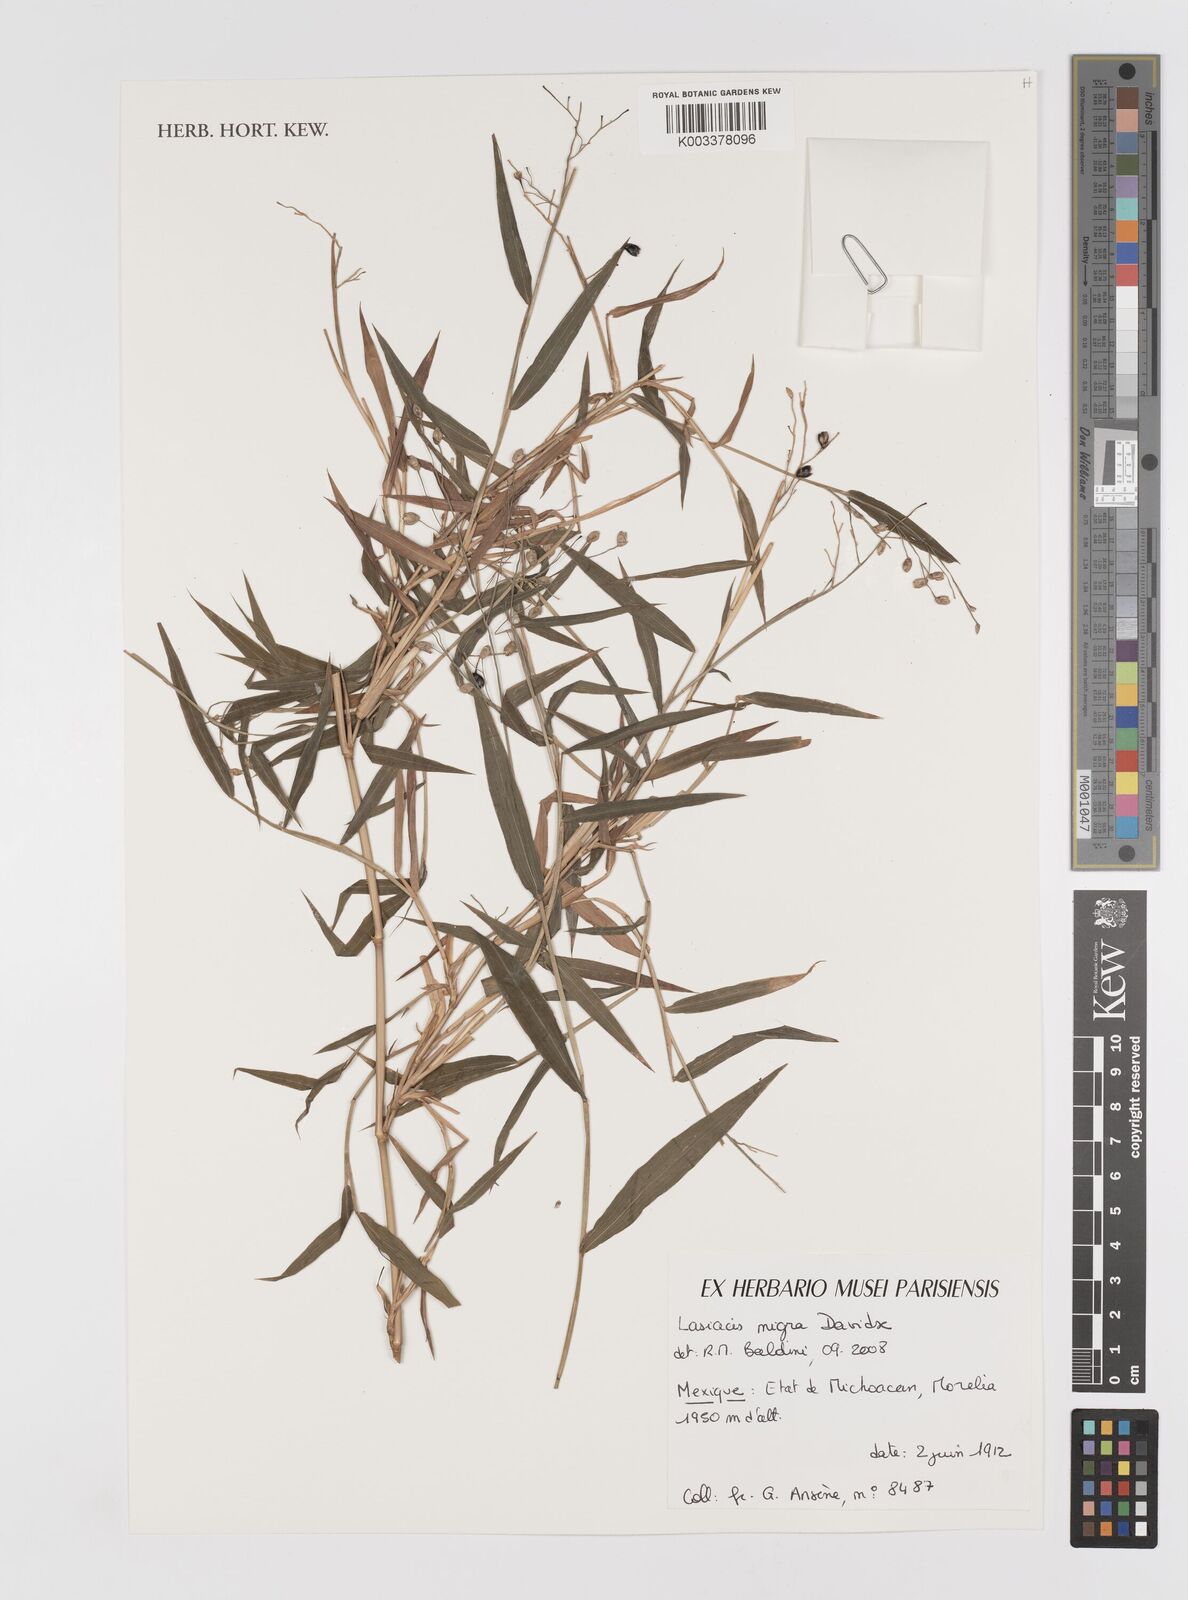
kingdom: Plantae
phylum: Tracheophyta
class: Liliopsida
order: Poales
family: Poaceae
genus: Lasiacis
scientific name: Lasiacis nigra
